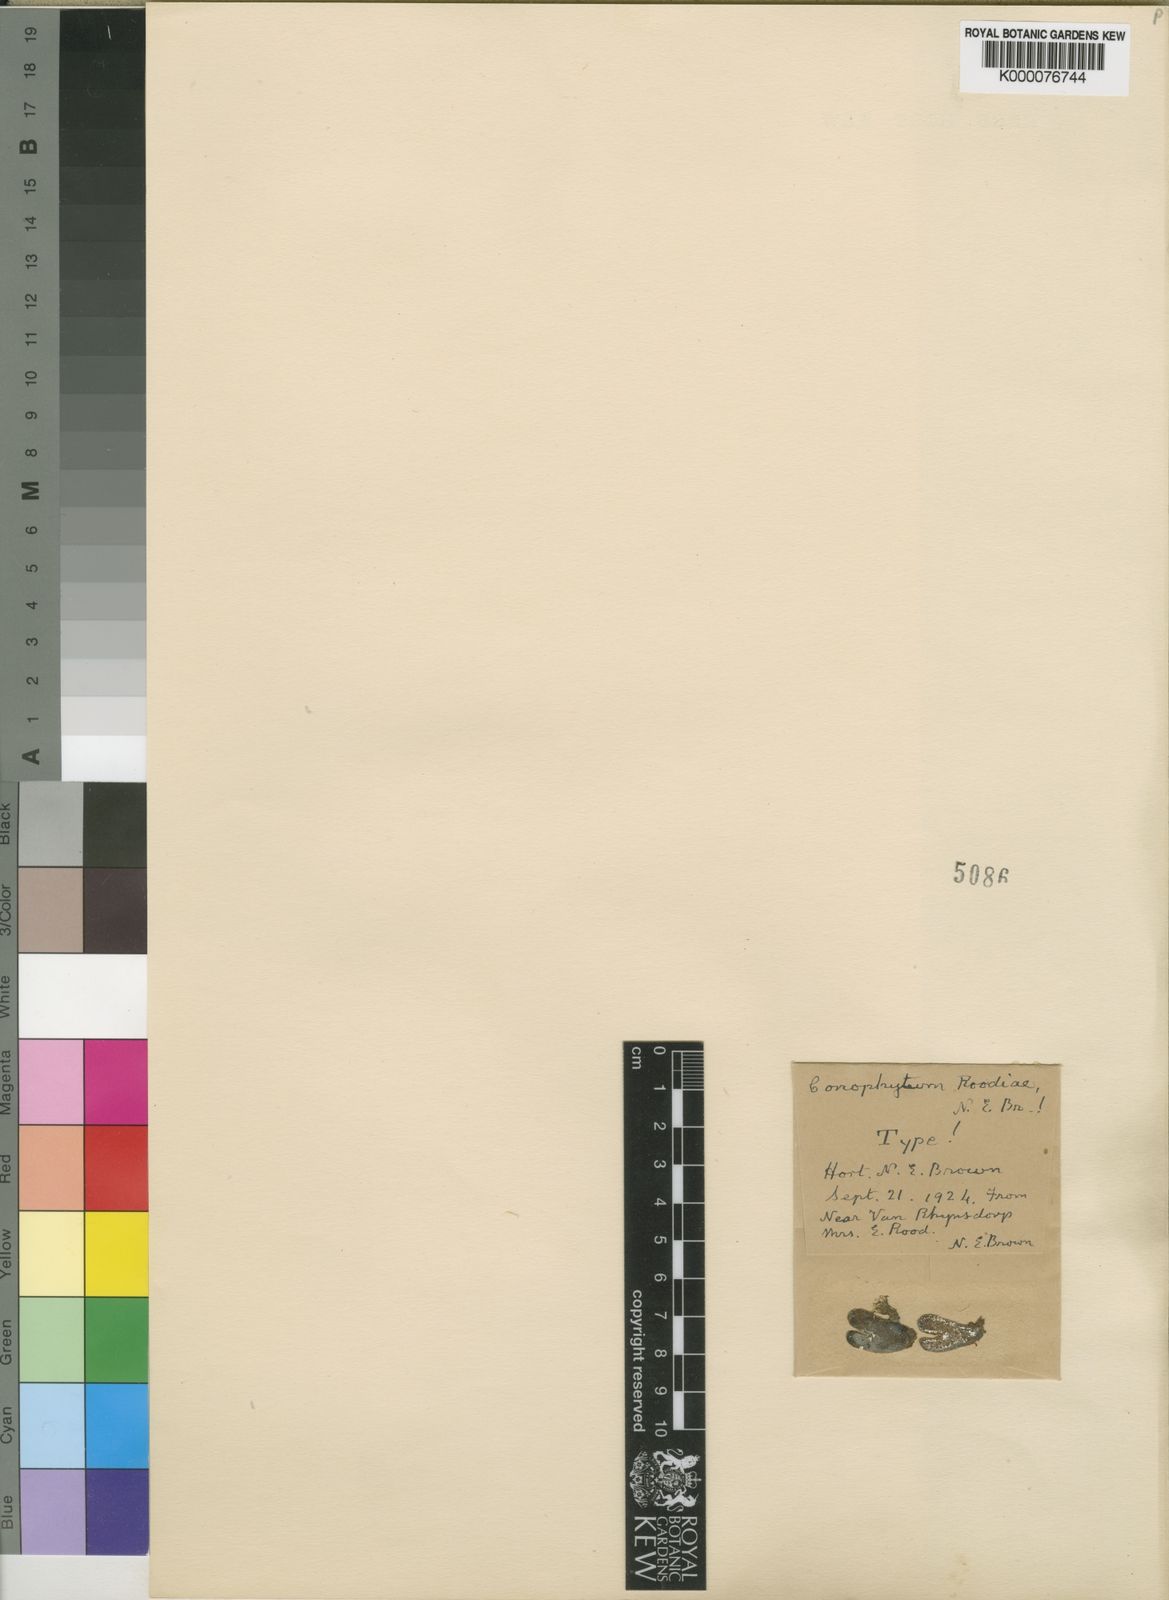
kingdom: Plantae
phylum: Tracheophyta
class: Magnoliopsida
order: Caryophyllales
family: Aizoaceae
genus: Conophytum
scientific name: Conophytum
